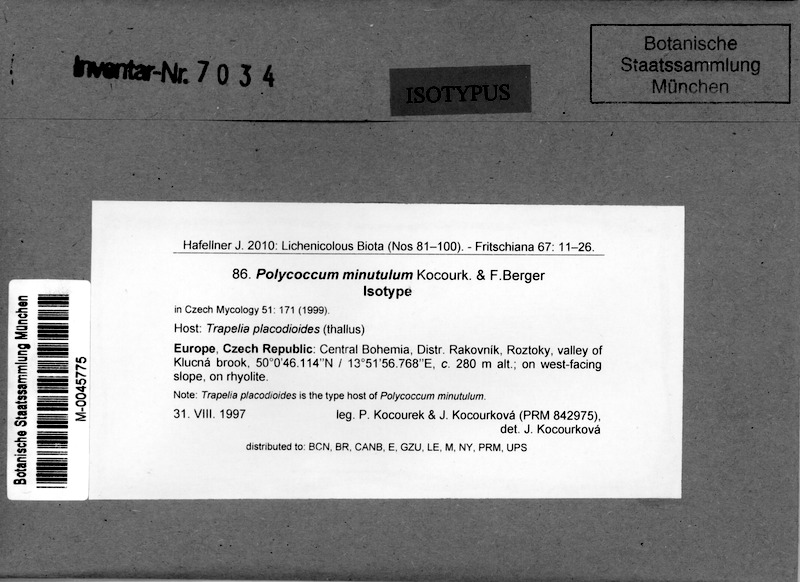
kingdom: Fungi
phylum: Ascomycota
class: Lecanoromycetes
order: Baeomycetales
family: Trapeliaceae
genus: Kleopowiella
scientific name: Kleopowiella placodioides
